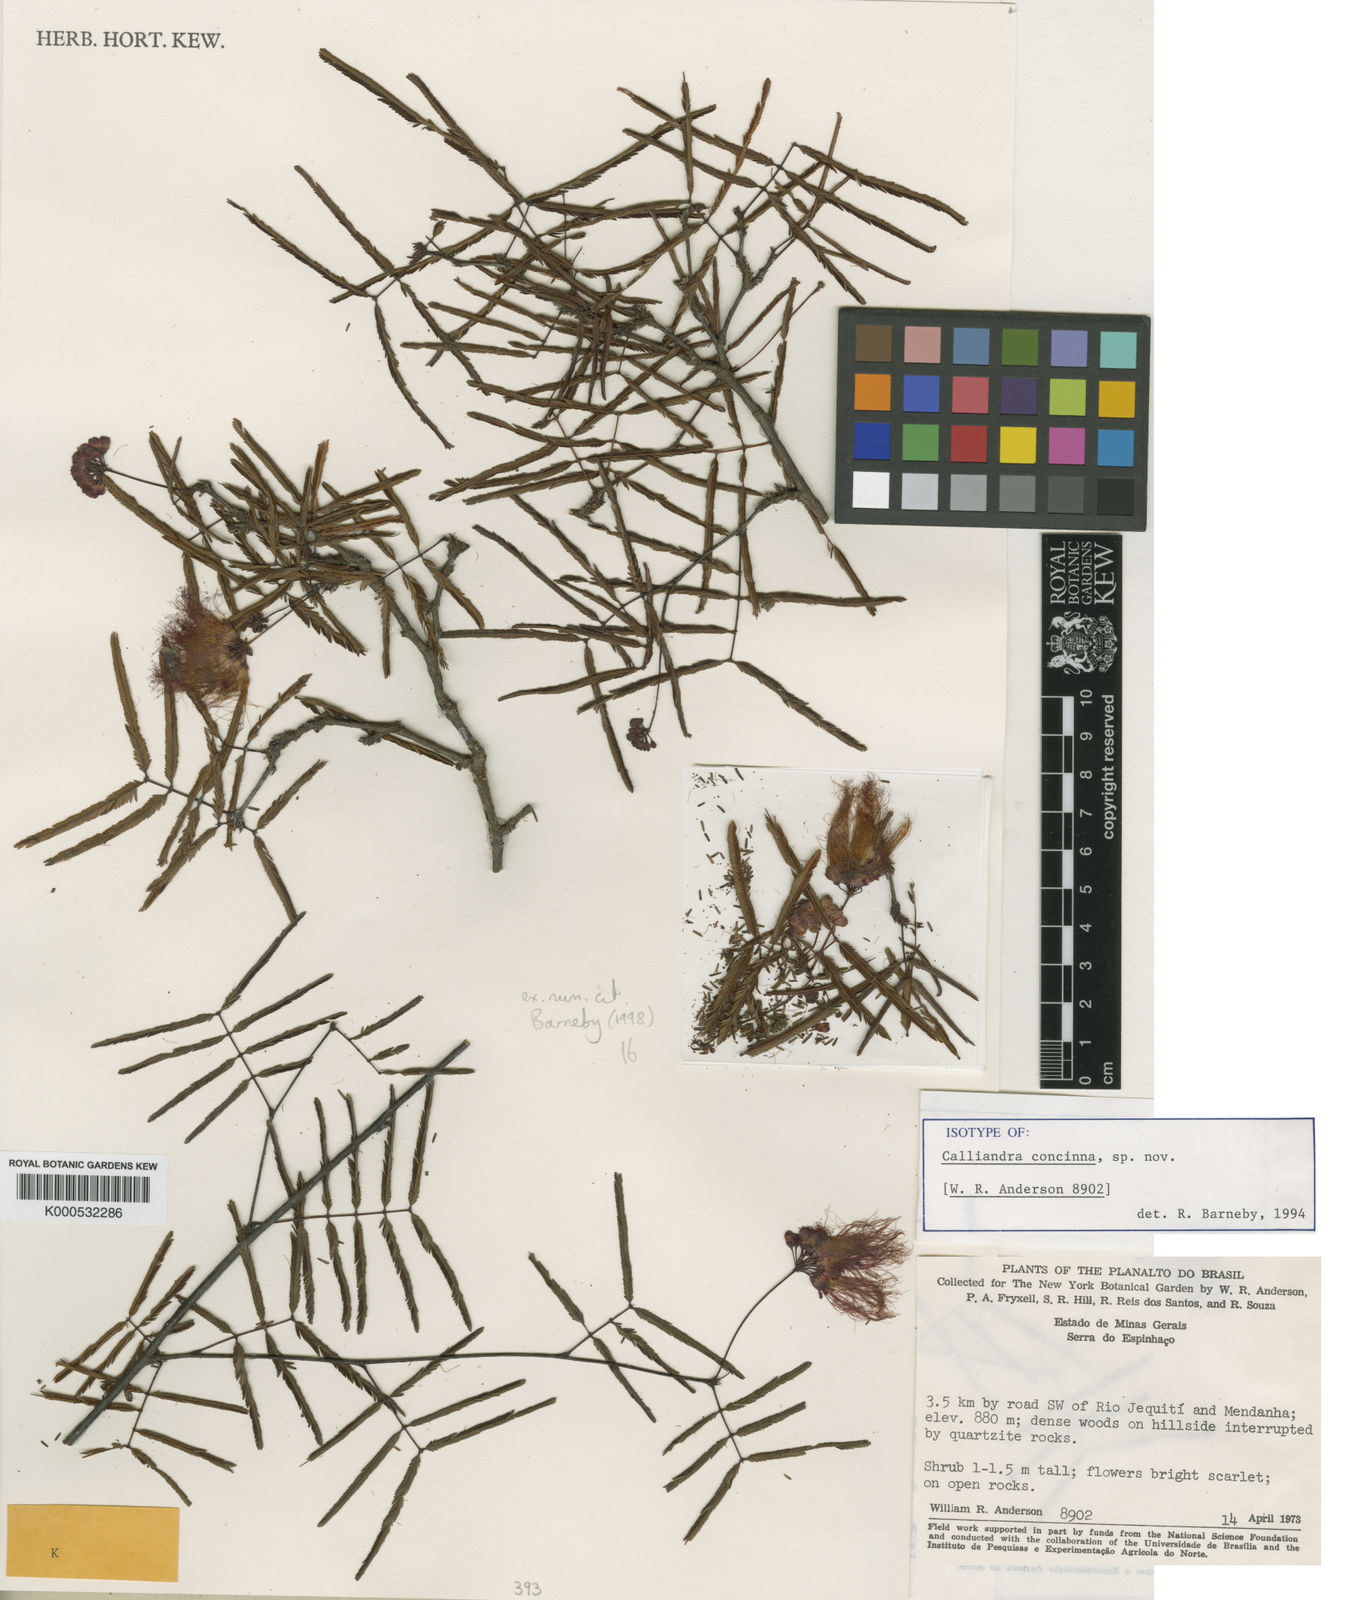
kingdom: Plantae
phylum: Tracheophyta
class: Magnoliopsida
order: Fabales
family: Fabaceae
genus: Calliandra
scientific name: Calliandra concinna
